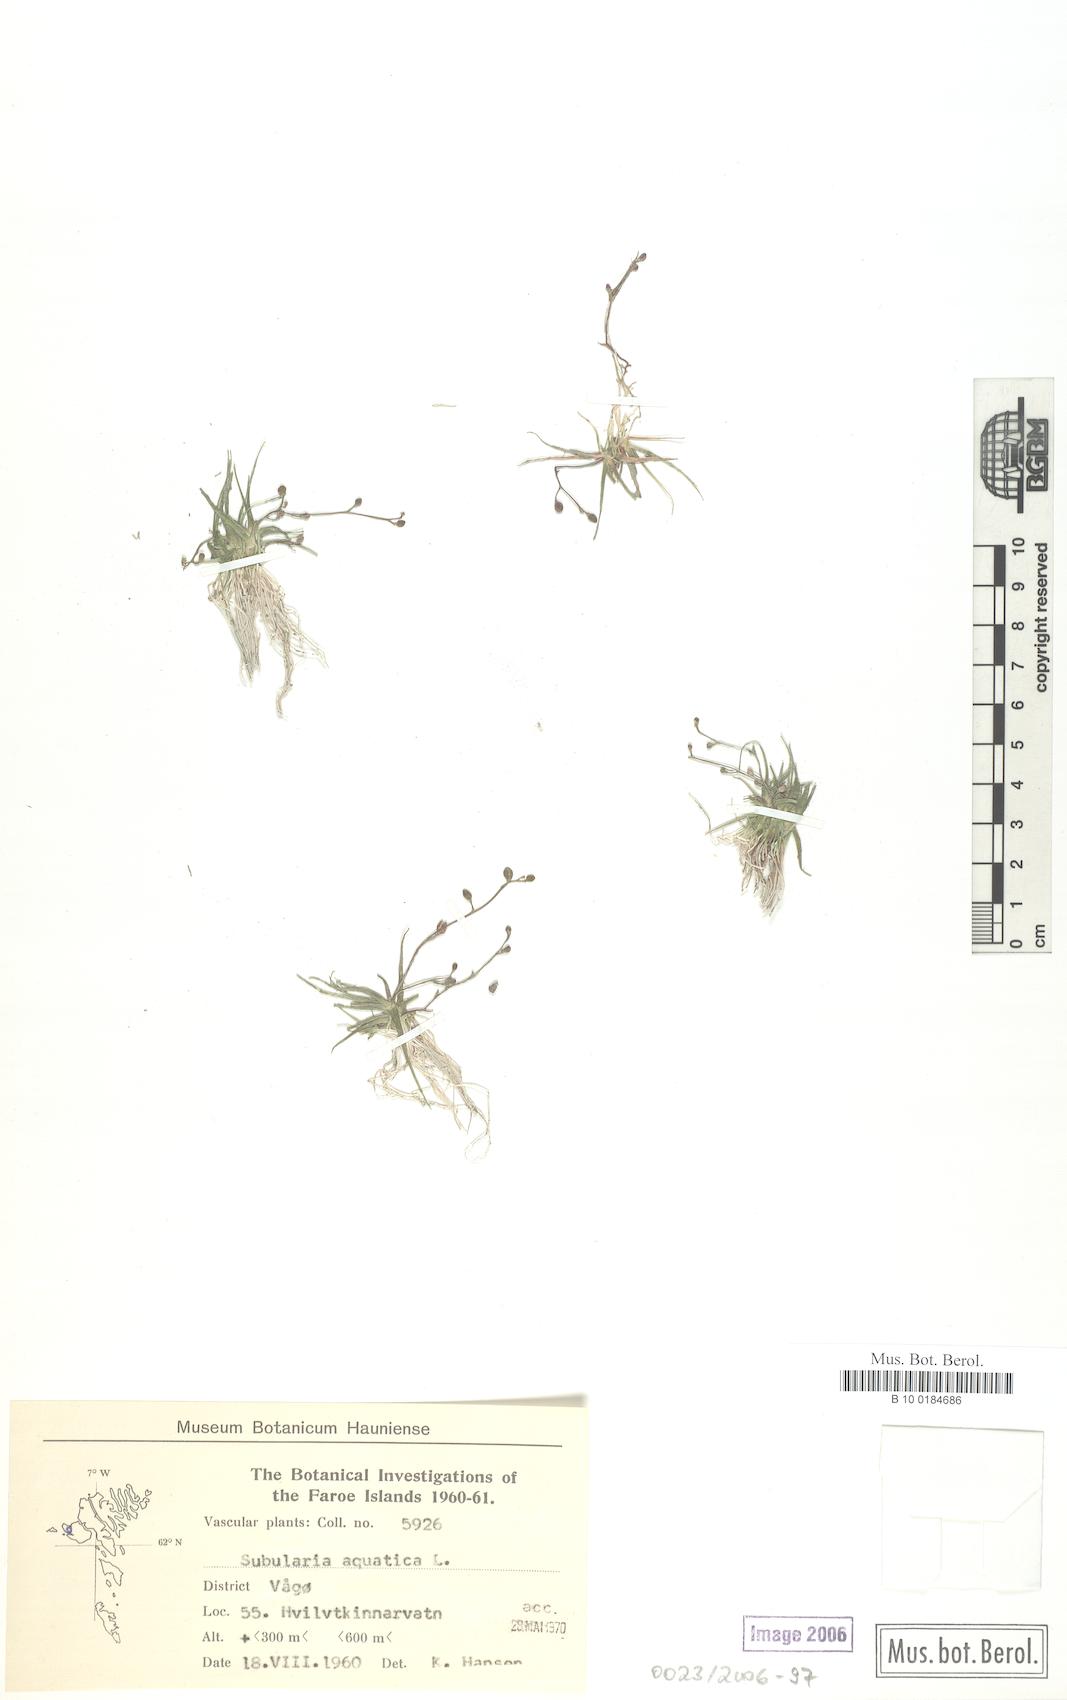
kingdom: Plantae
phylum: Tracheophyta
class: Magnoliopsida
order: Brassicales
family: Brassicaceae
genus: Subularia
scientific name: Subularia aquatica
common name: Awlwort
